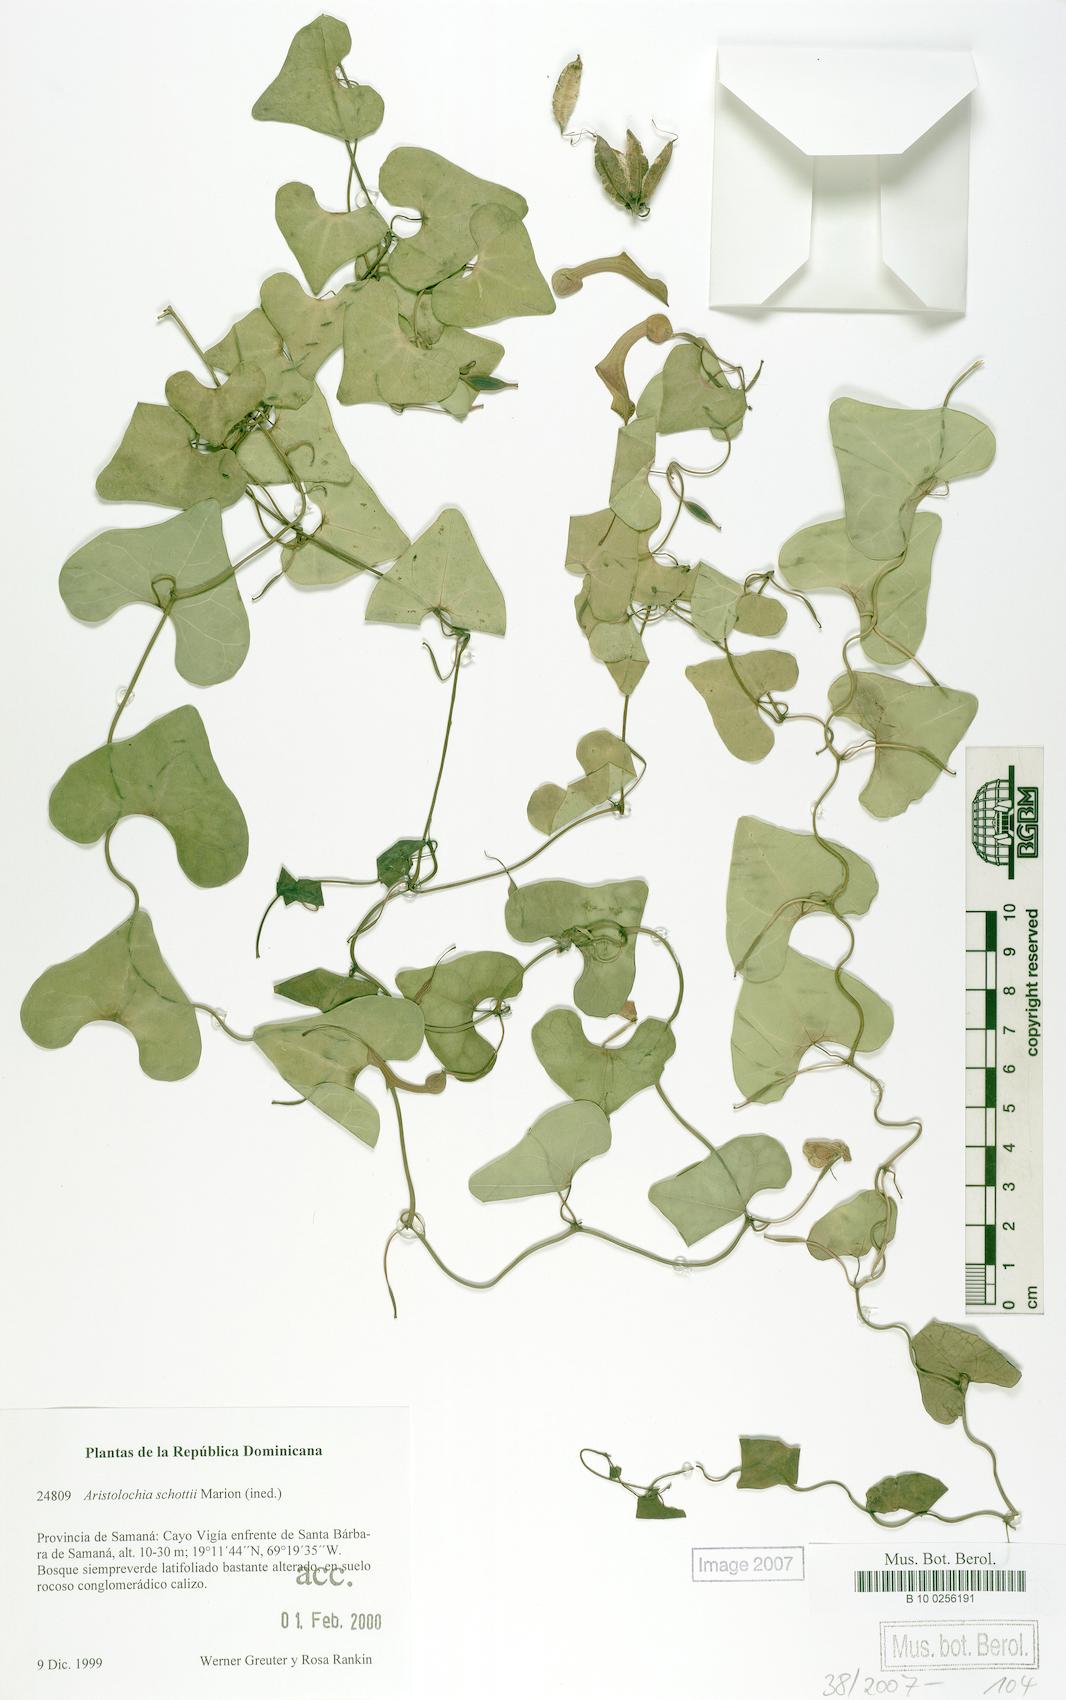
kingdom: Plantae
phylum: Tracheophyta
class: Magnoliopsida
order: Piperales
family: Aristolochiaceae
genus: Aristolochia
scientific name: Aristolochia schottii
